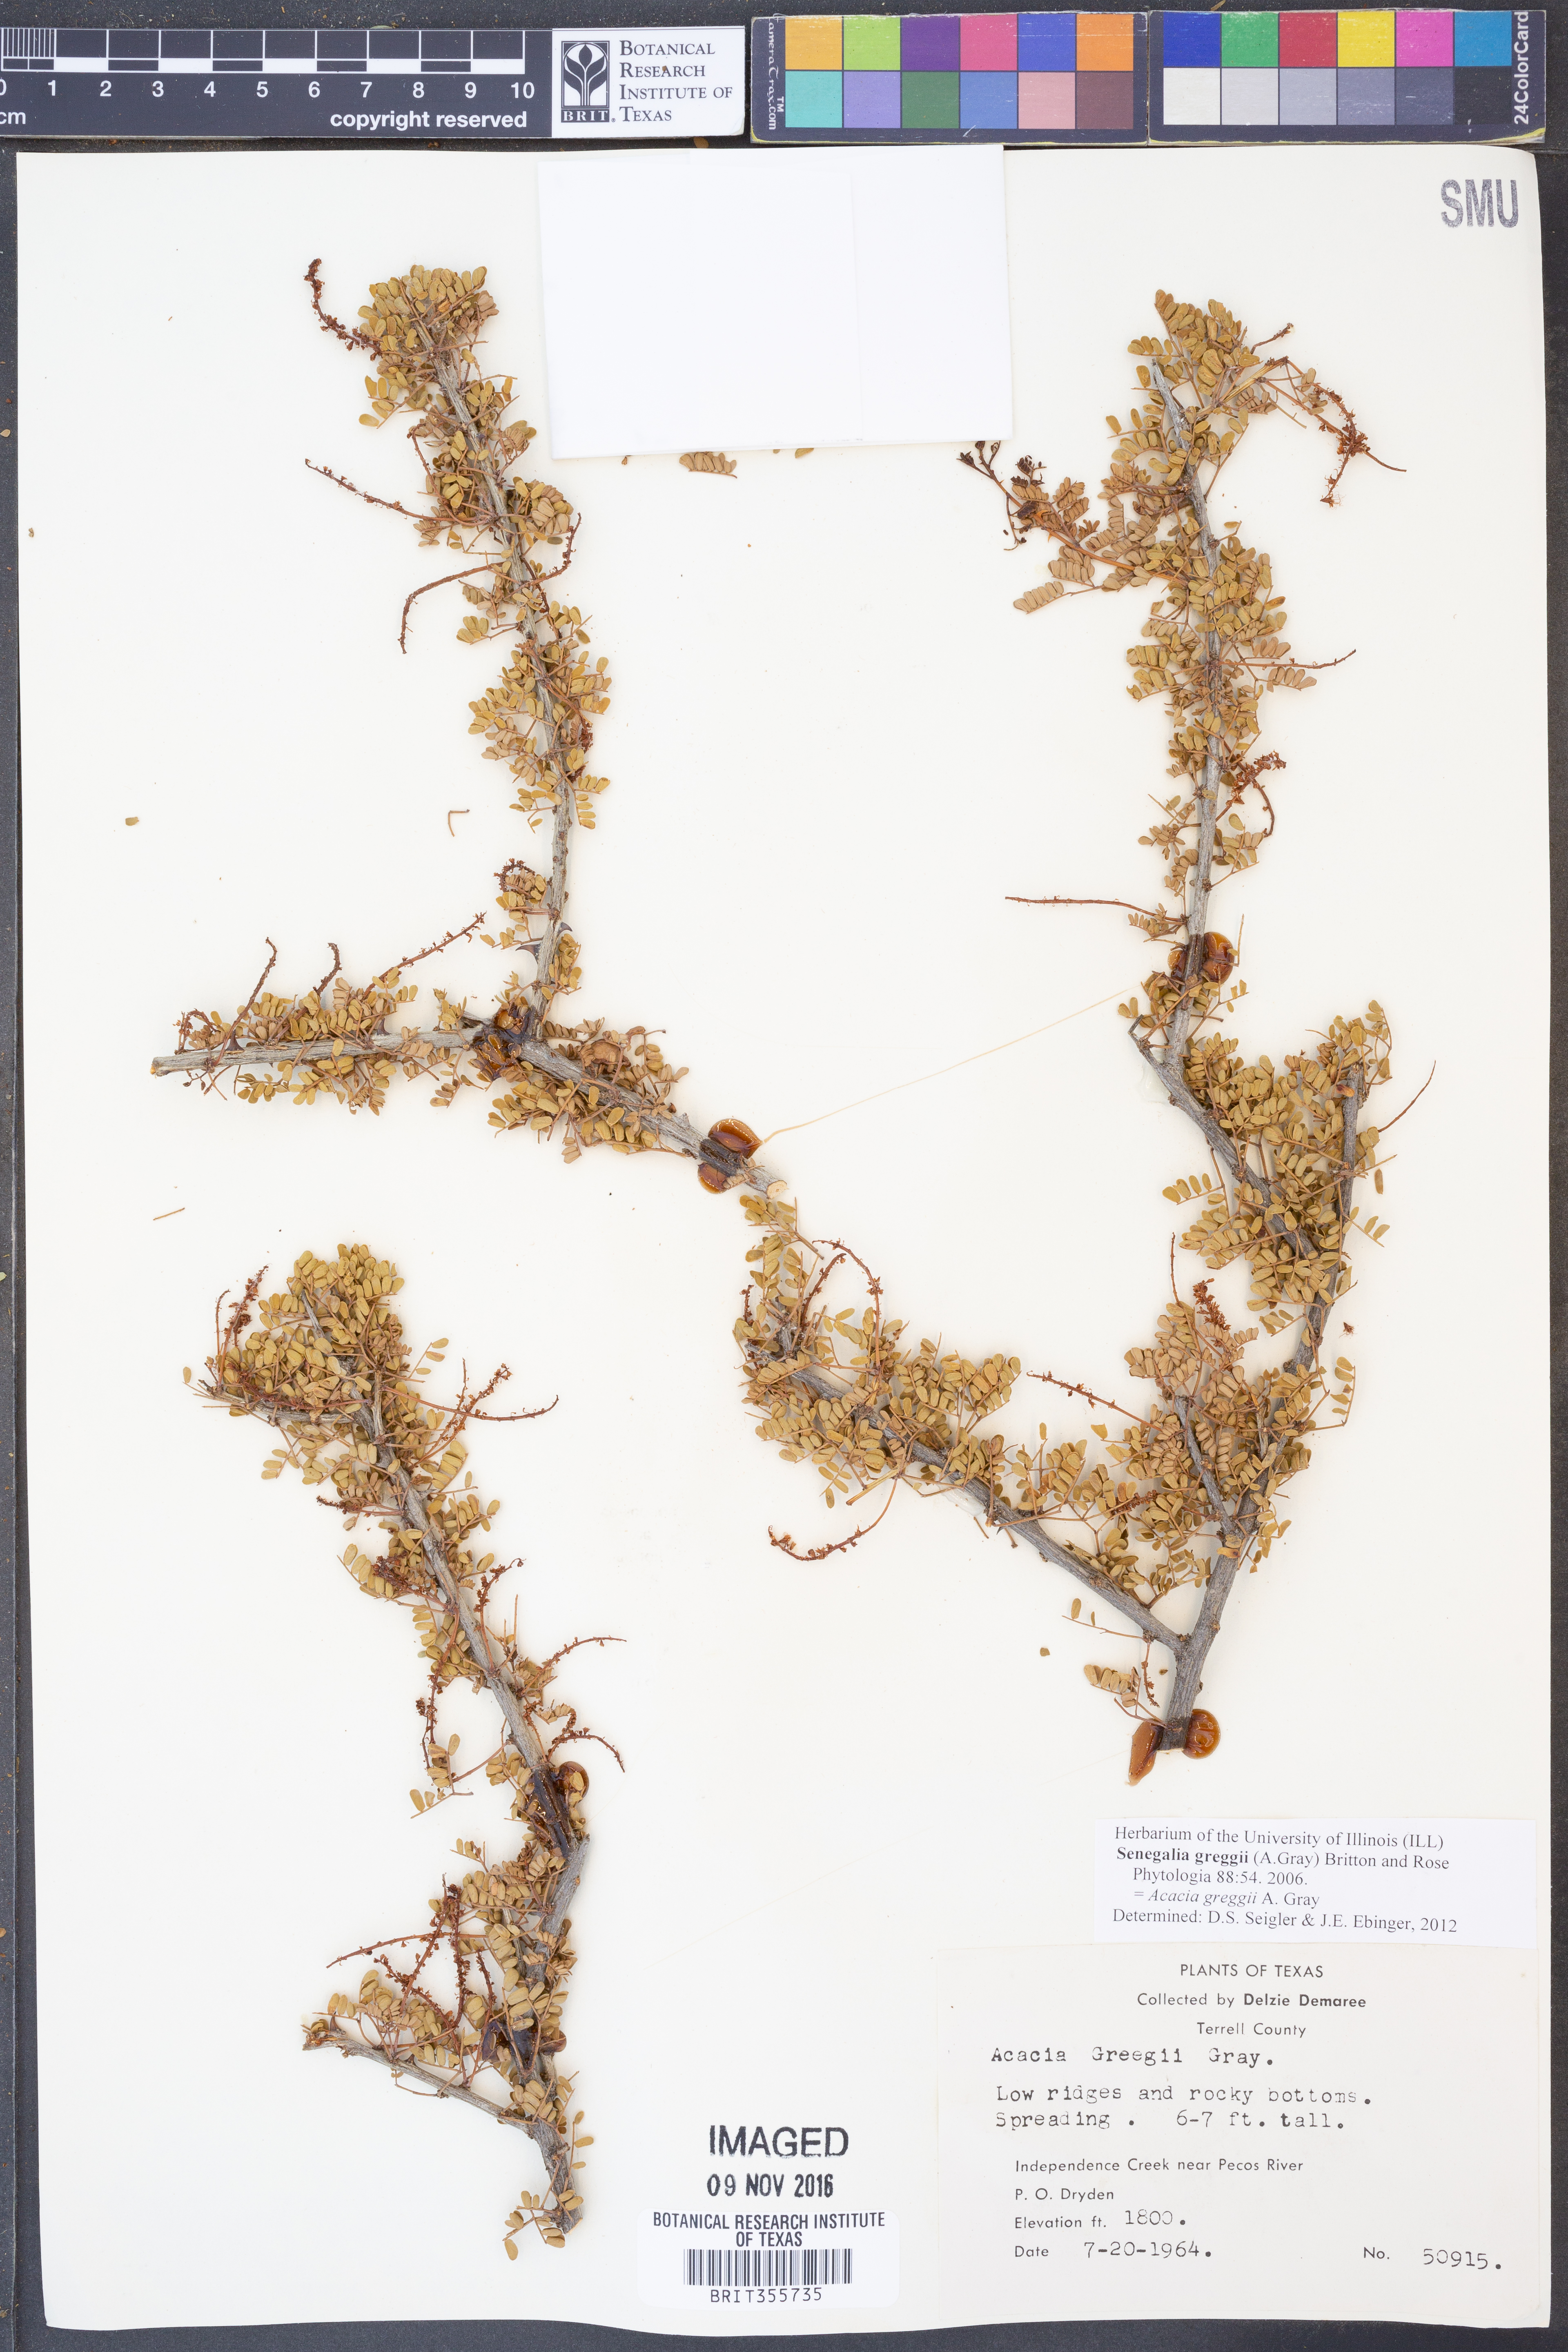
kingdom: Plantae
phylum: Tracheophyta
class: Magnoliopsida
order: Fabales
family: Fabaceae
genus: Senegalia
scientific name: Senegalia greggii
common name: Texas-mimosa
